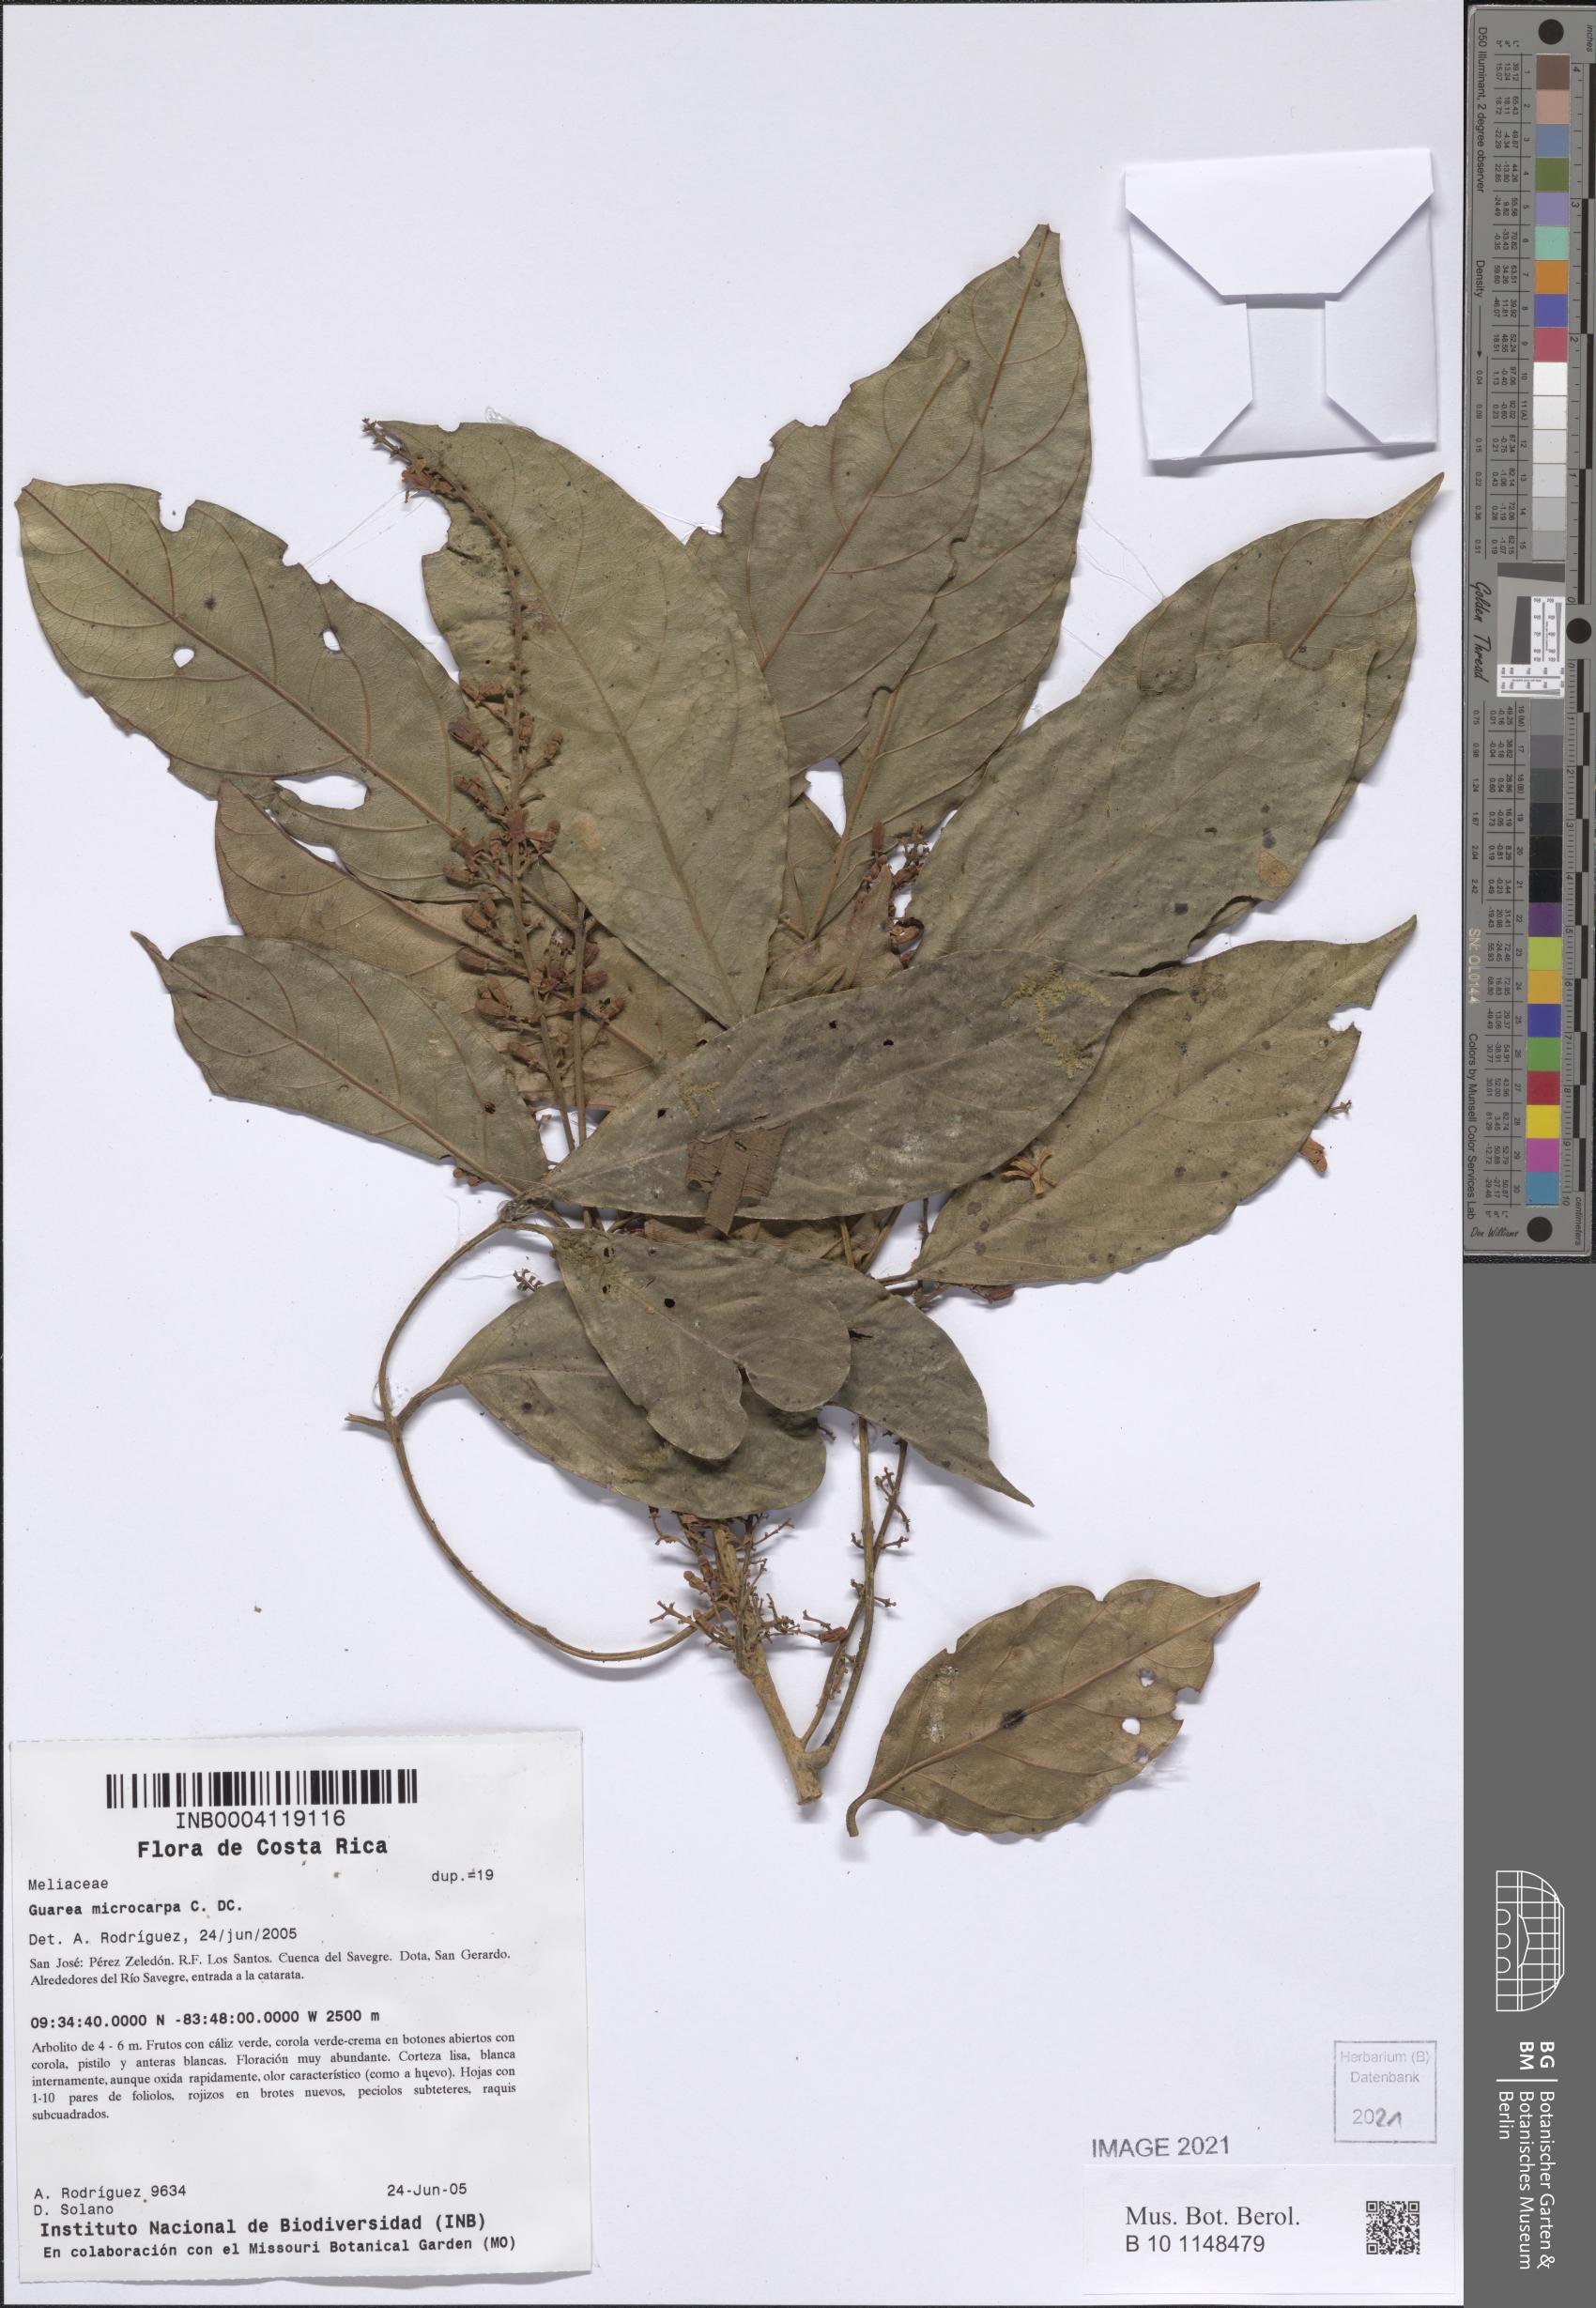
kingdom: Plantae
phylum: Tracheophyta
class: Magnoliopsida
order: Sapindales
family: Meliaceae
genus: Guarea
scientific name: Guarea glabra
